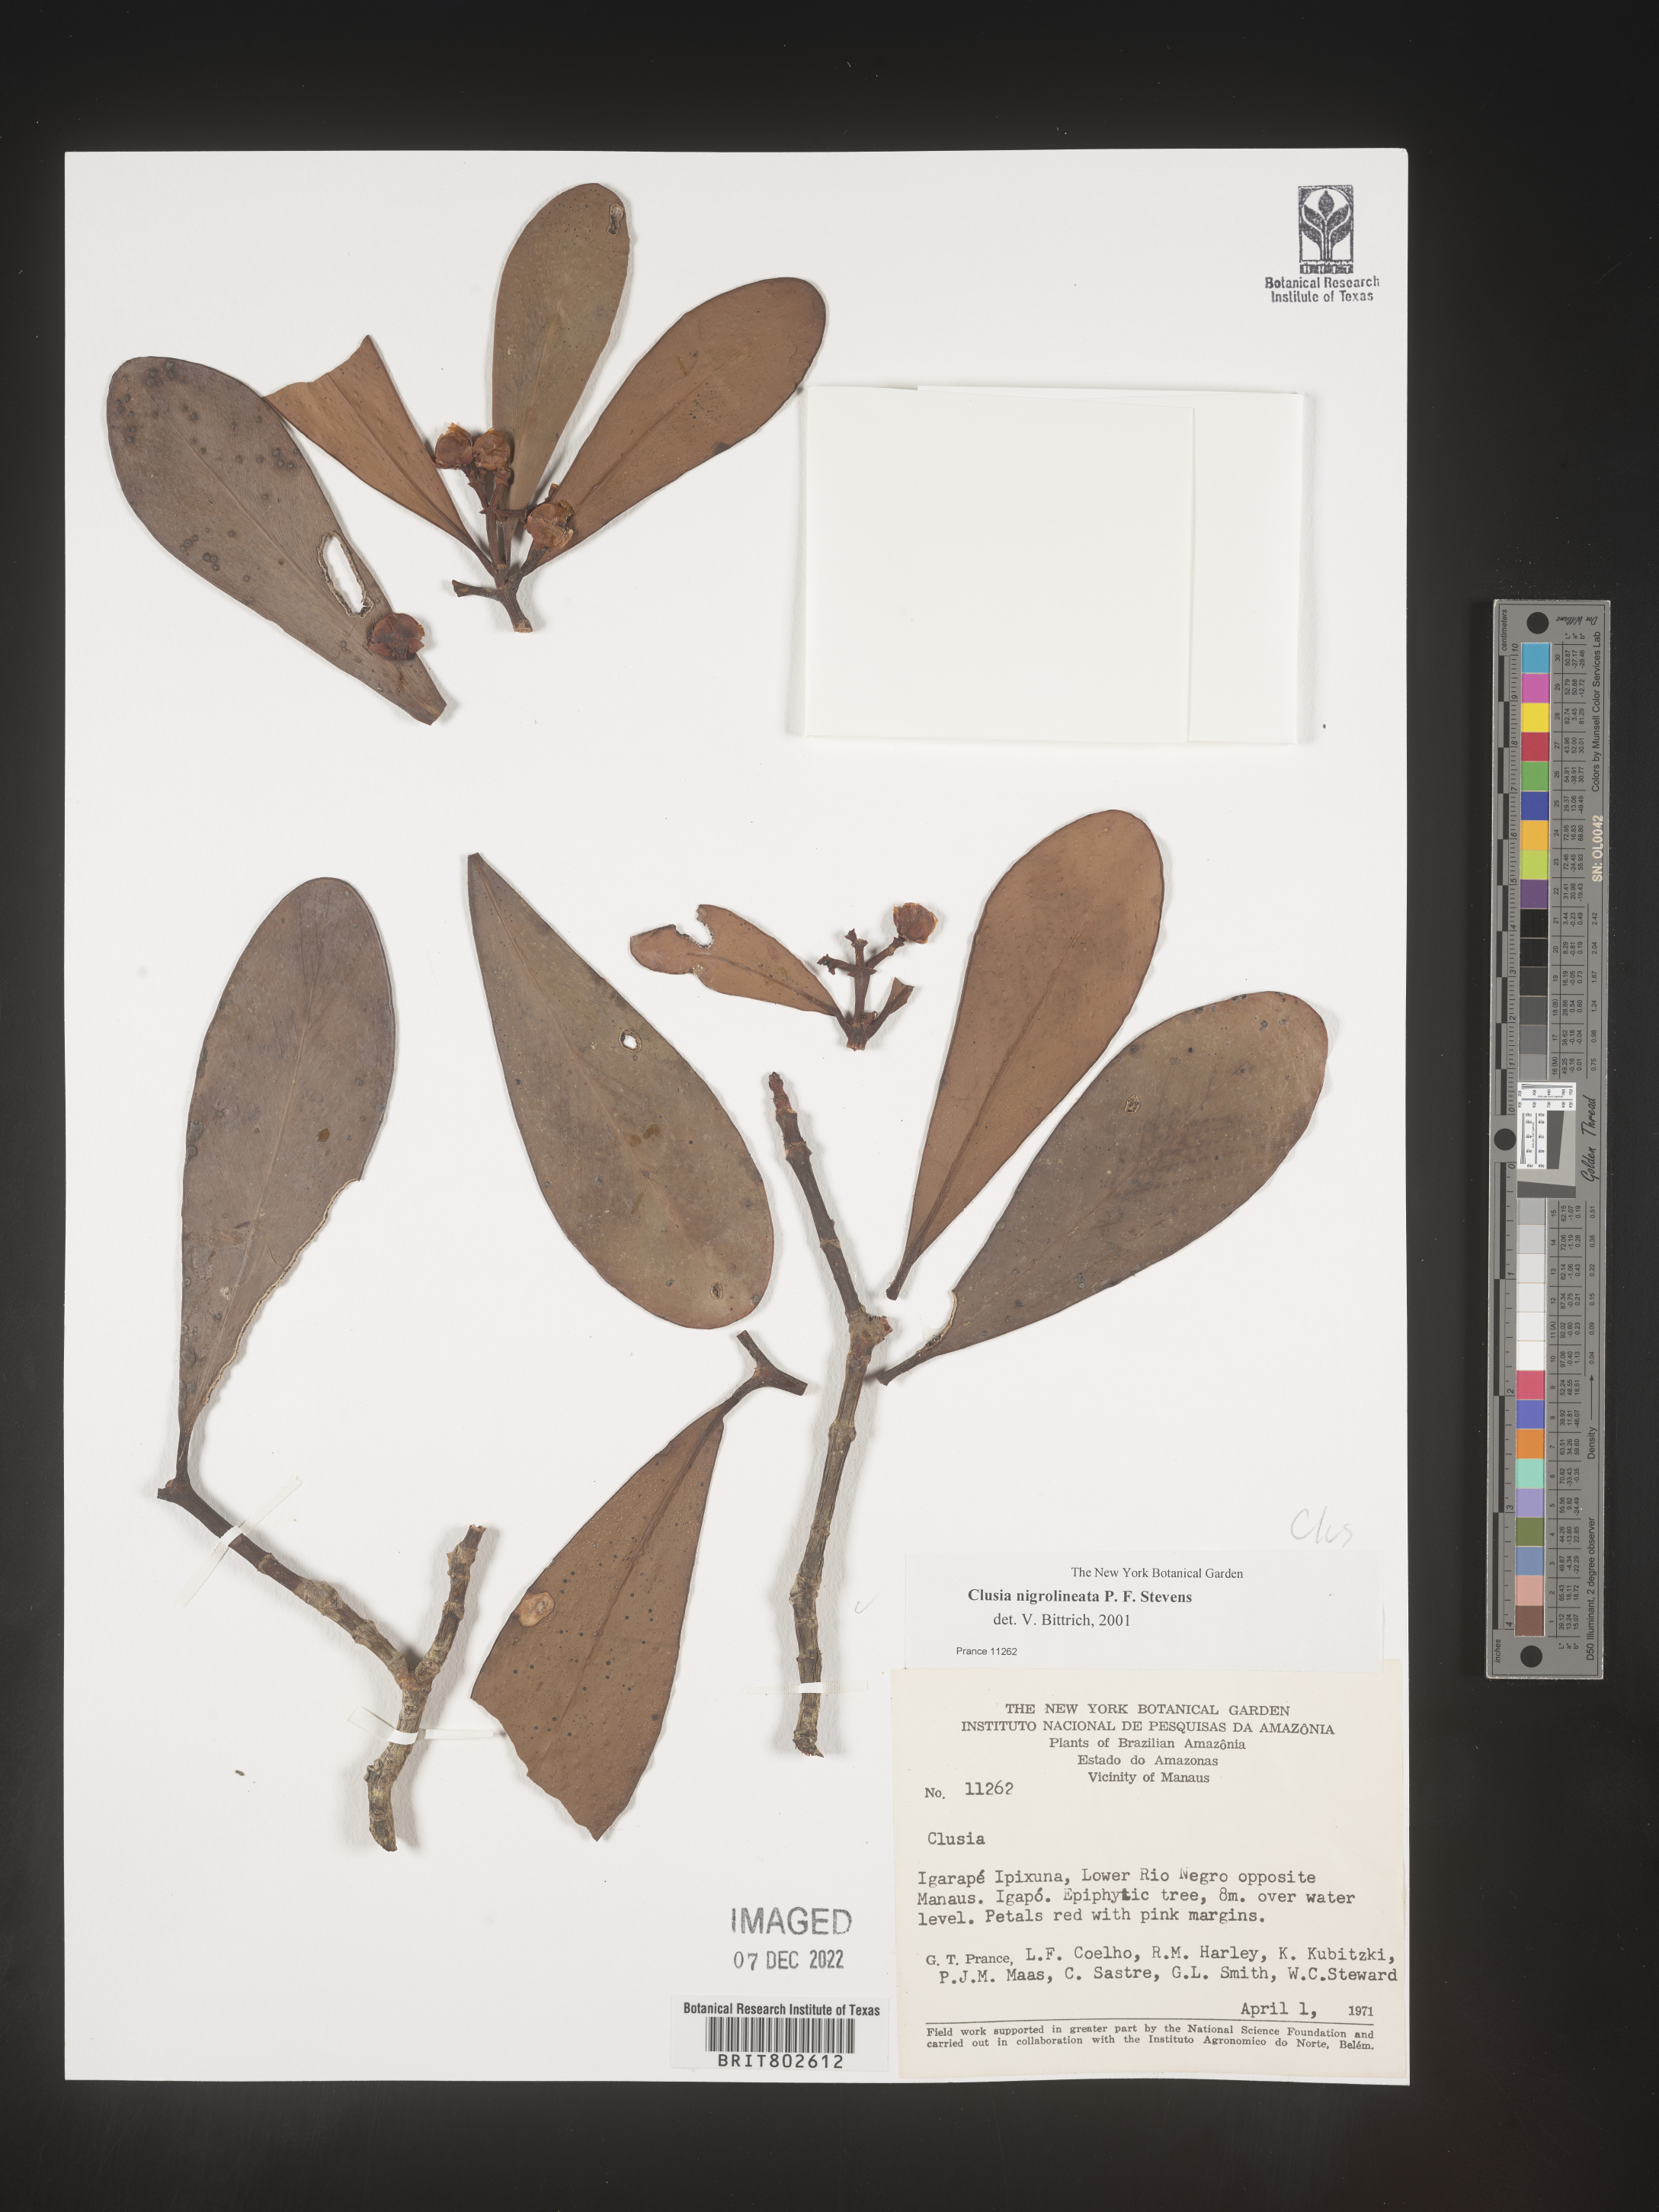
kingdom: Plantae
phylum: Tracheophyta
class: Magnoliopsida
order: Malpighiales
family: Clusiaceae
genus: Clusia
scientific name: Clusia nigrolineata
